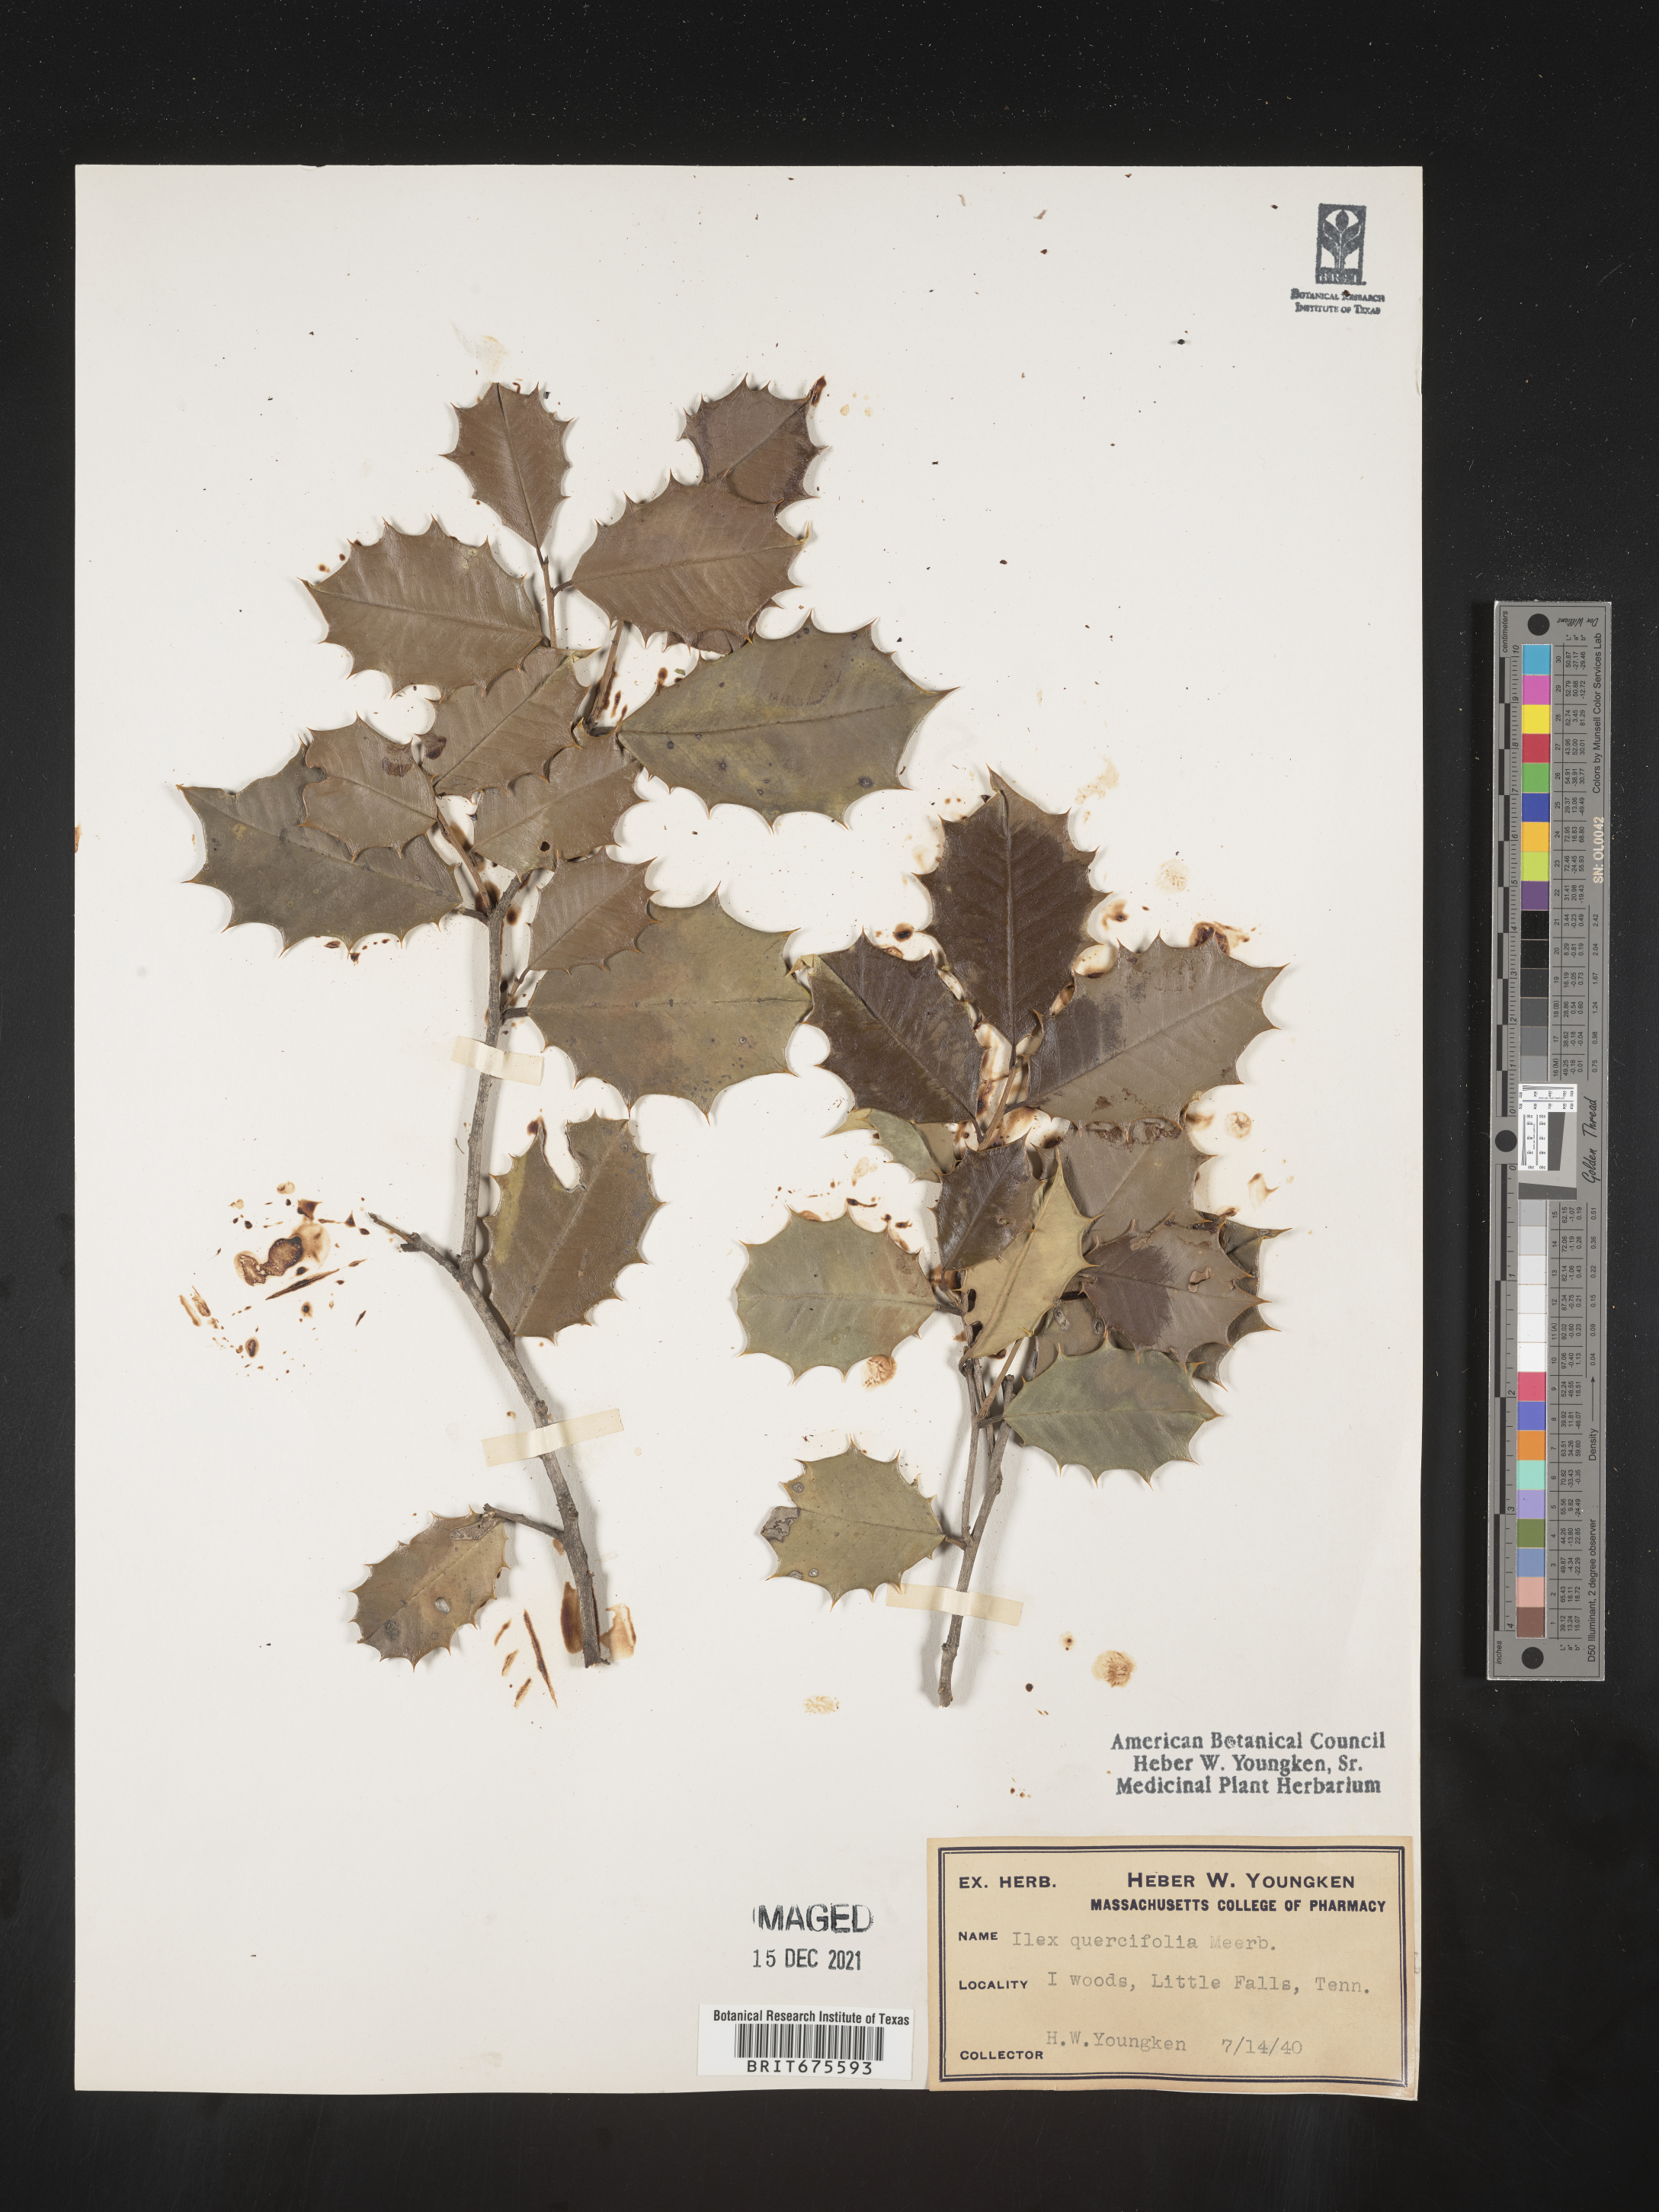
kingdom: Plantae
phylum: Tracheophyta
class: Magnoliopsida
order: Aquifoliales
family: Aquifoliaceae
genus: Ilex
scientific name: Ilex opaca
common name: American holly
